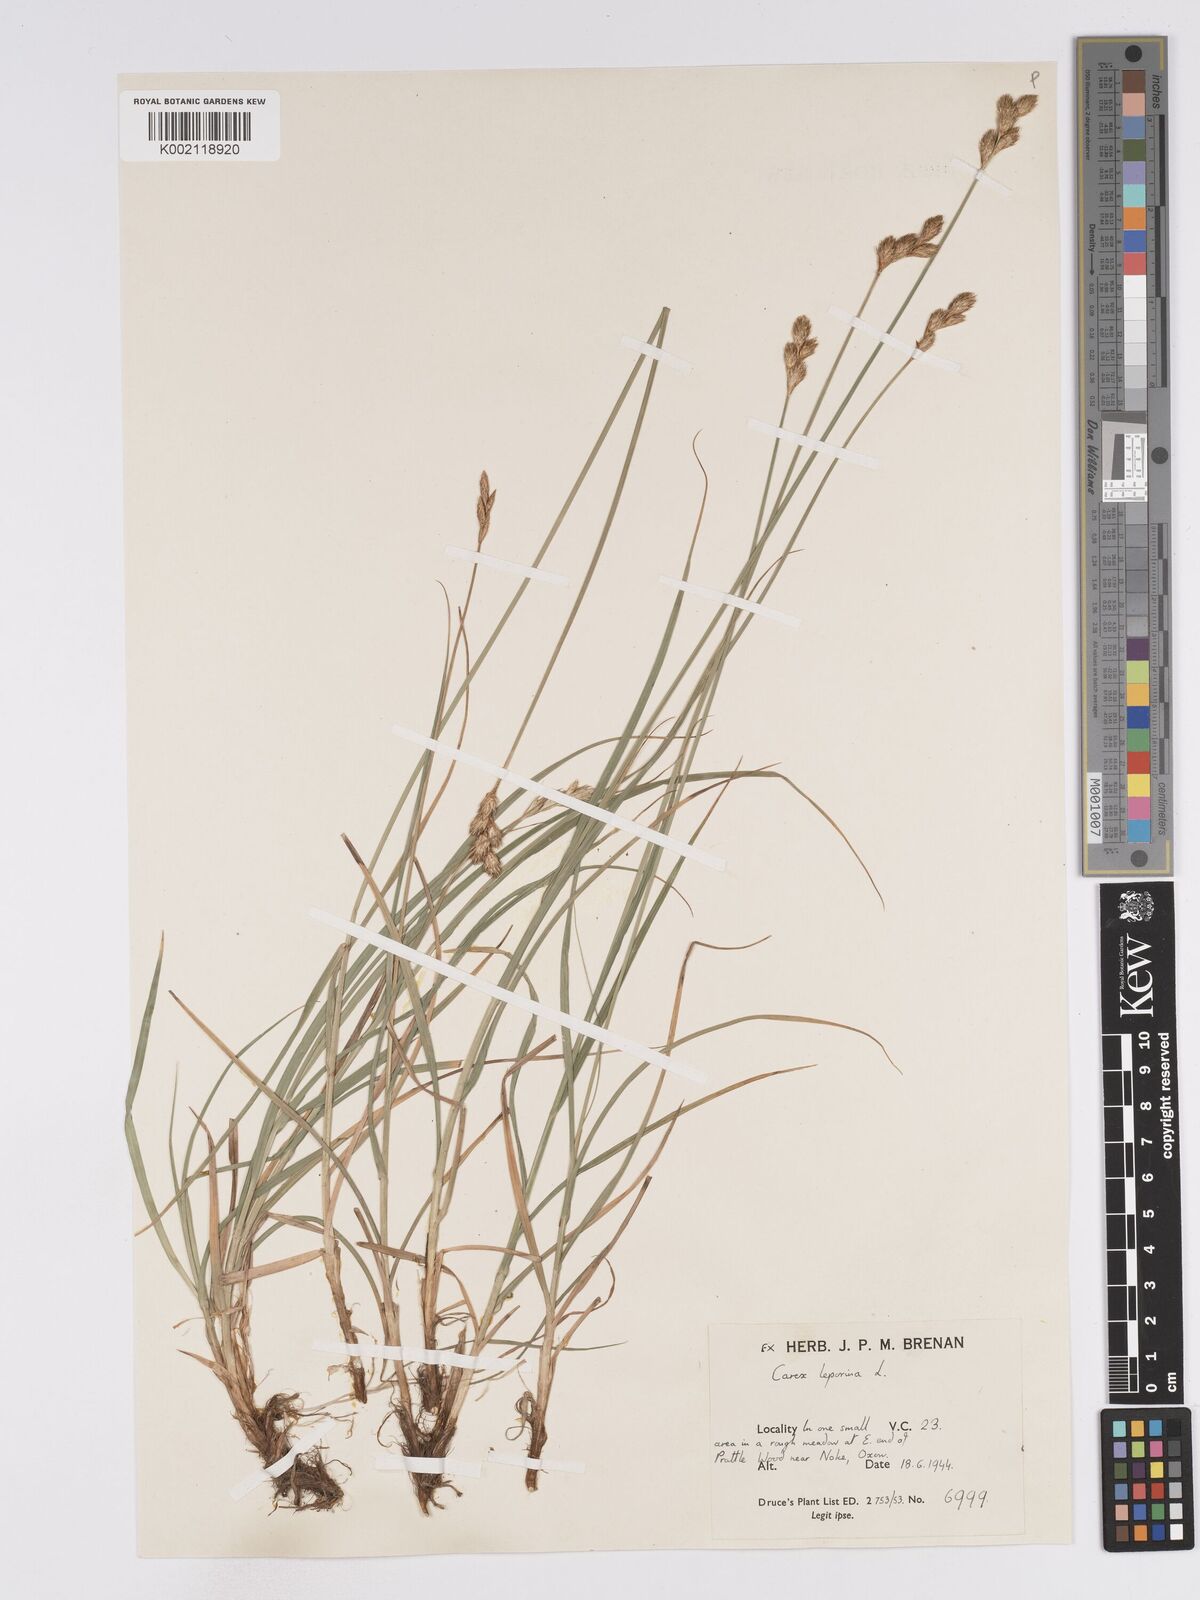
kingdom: Plantae
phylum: Tracheophyta
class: Liliopsida
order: Poales
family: Cyperaceae
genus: Carex
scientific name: Carex leporina
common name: Oval sedge
